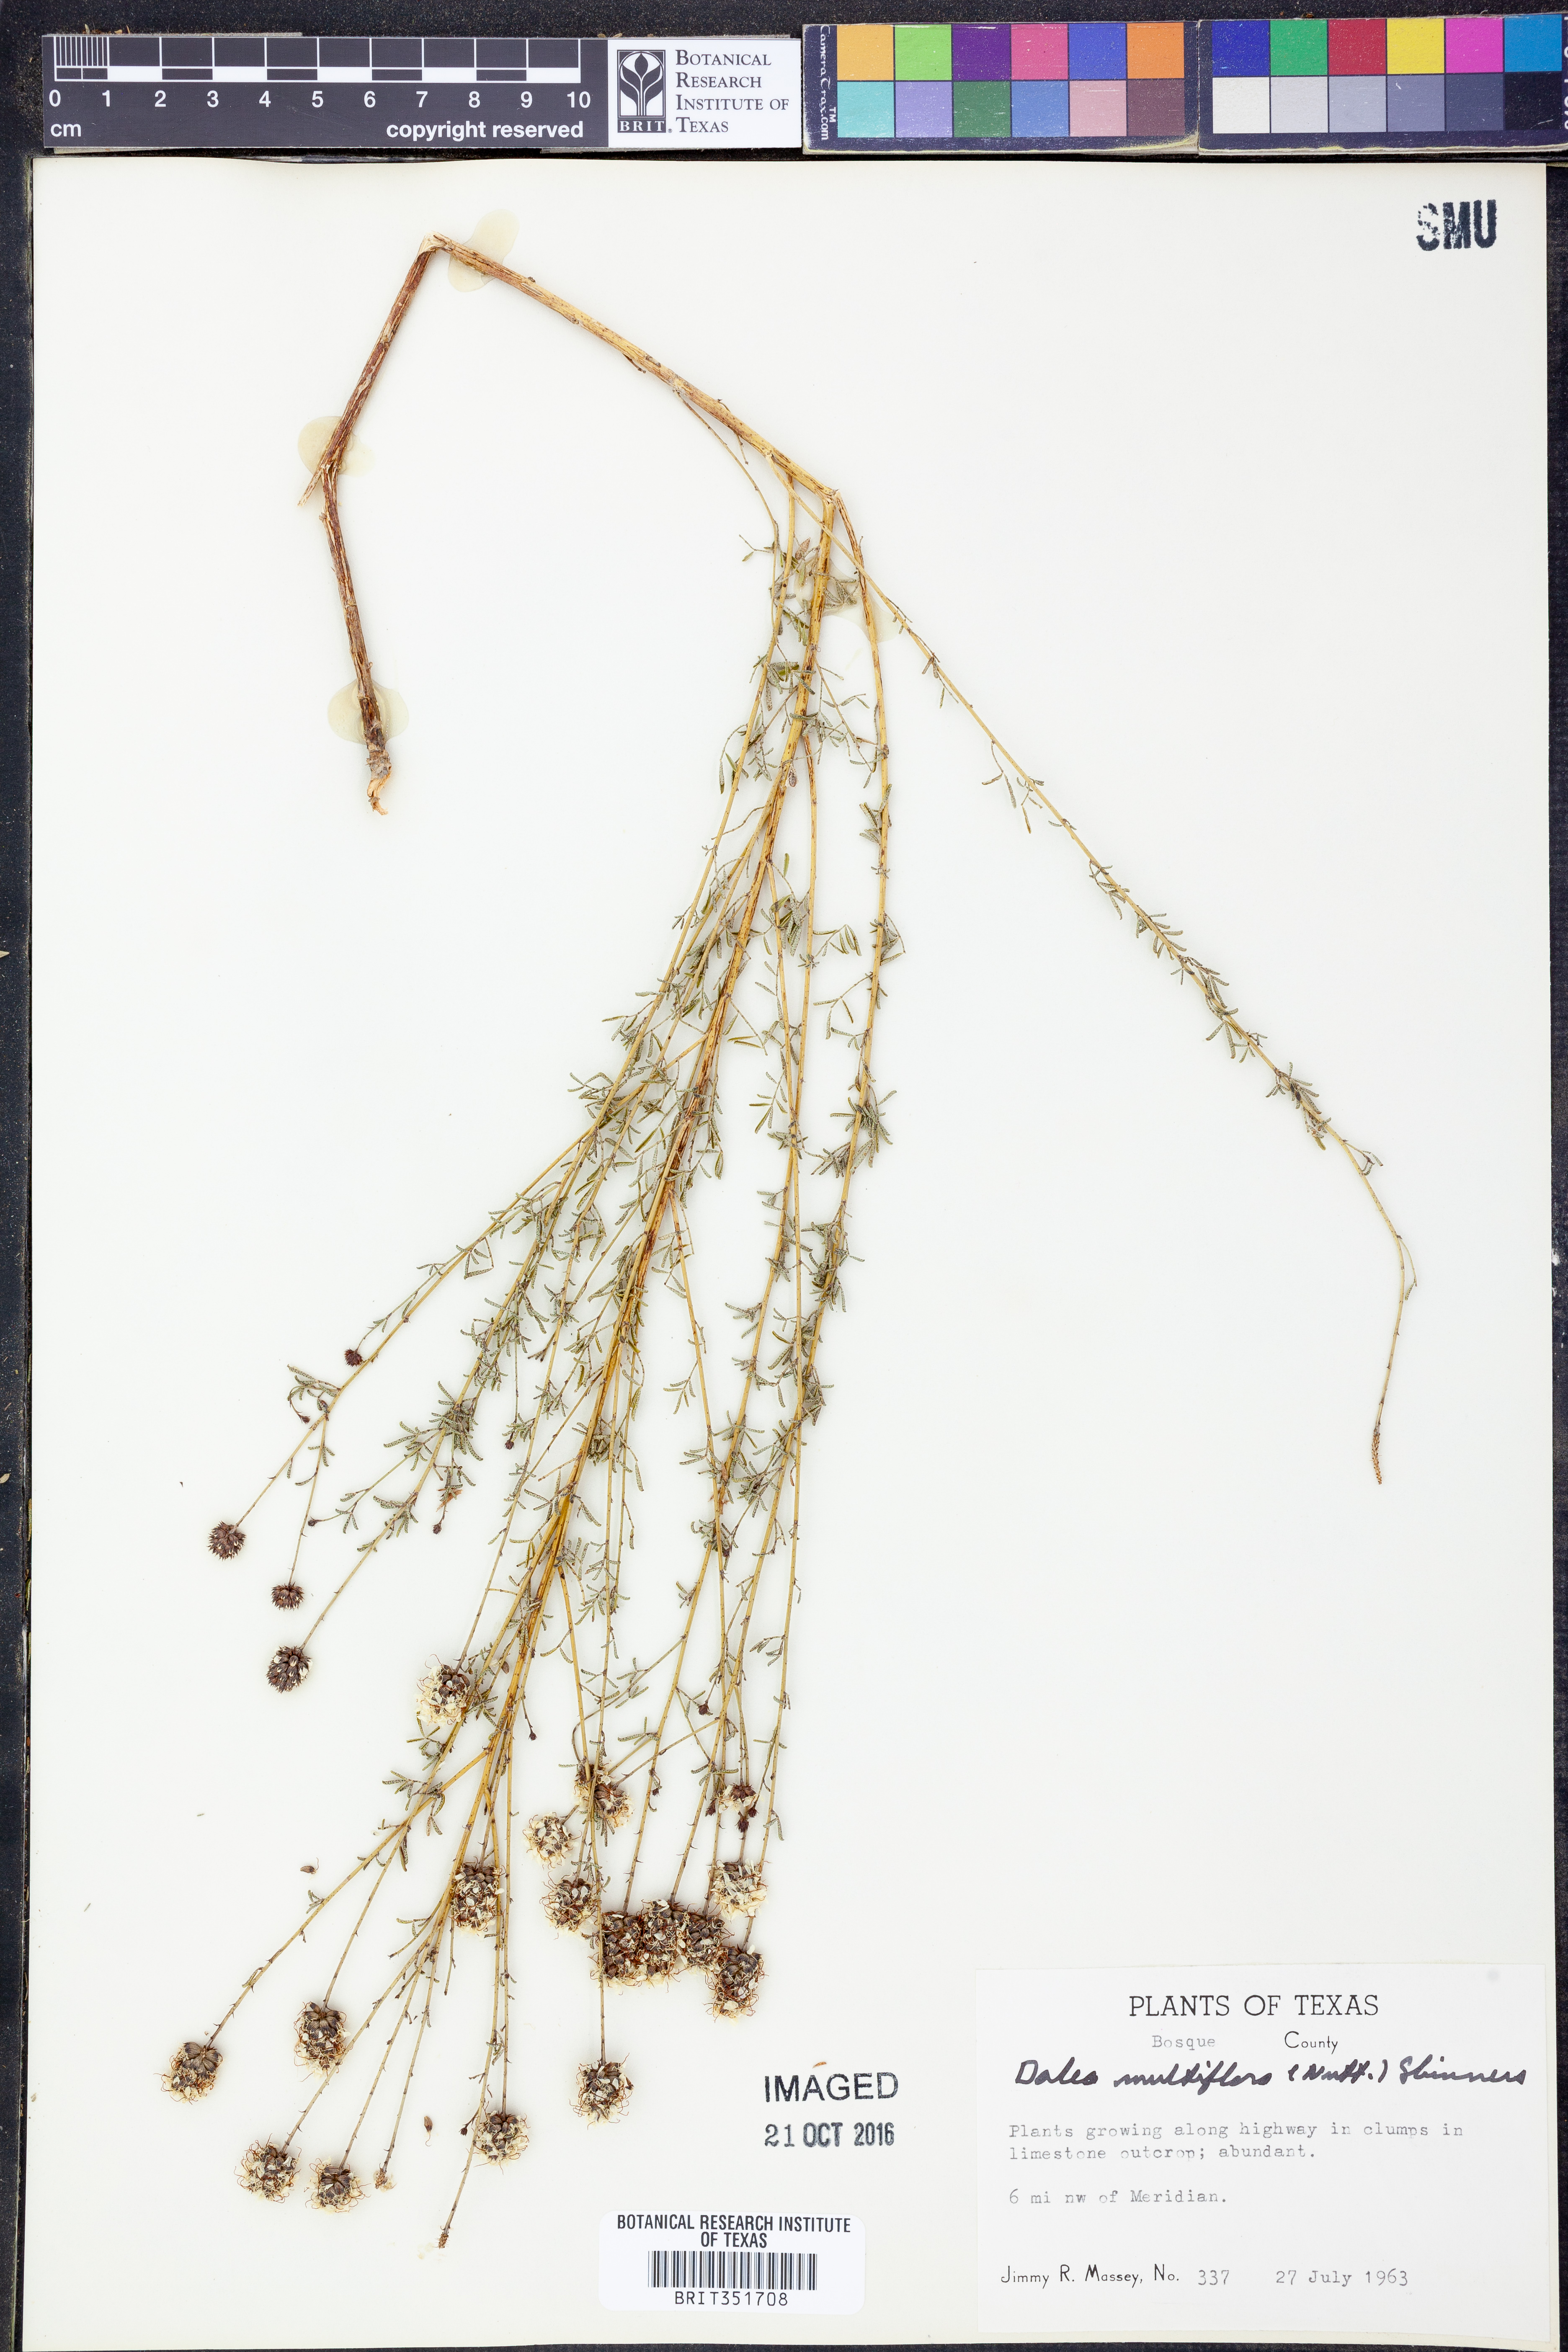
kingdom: Plantae
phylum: Tracheophyta
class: Magnoliopsida
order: Fabales
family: Fabaceae
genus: Dalea
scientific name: Dalea multiflora
